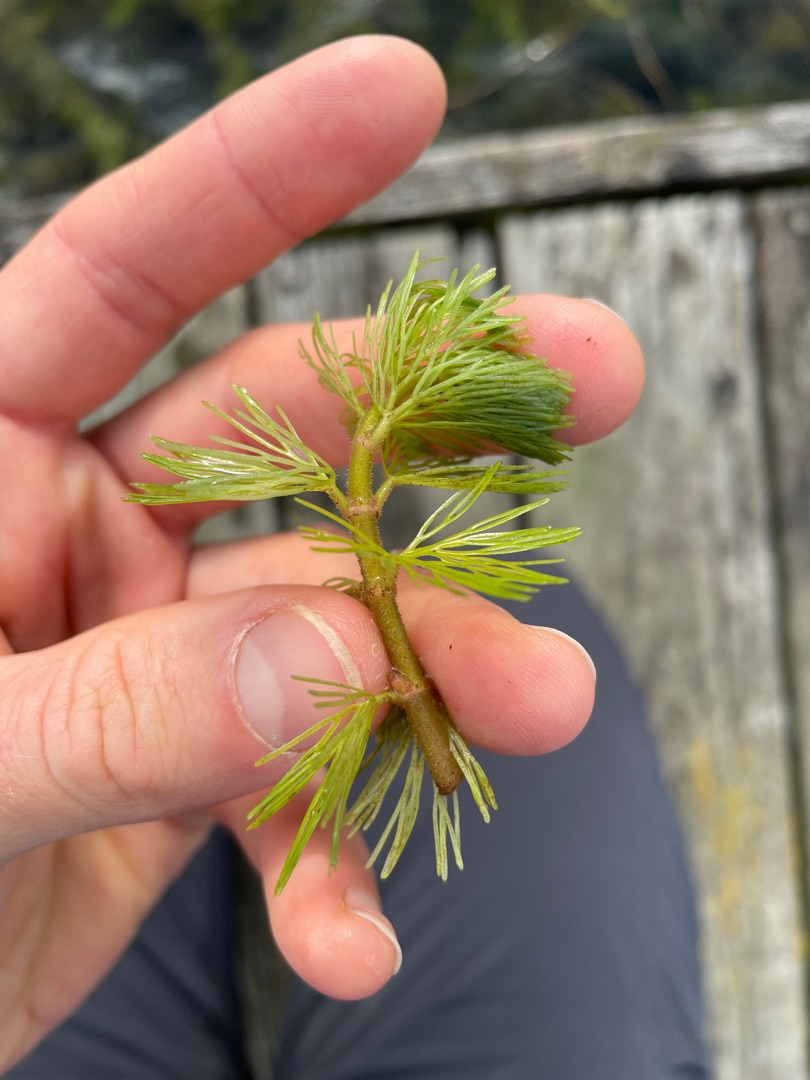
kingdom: Plantae
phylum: Tracheophyta
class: Magnoliopsida
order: Nymphaeales
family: Cabombaceae
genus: Cabomba
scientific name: Cabomba caroliniana
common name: Grøn cabomba
